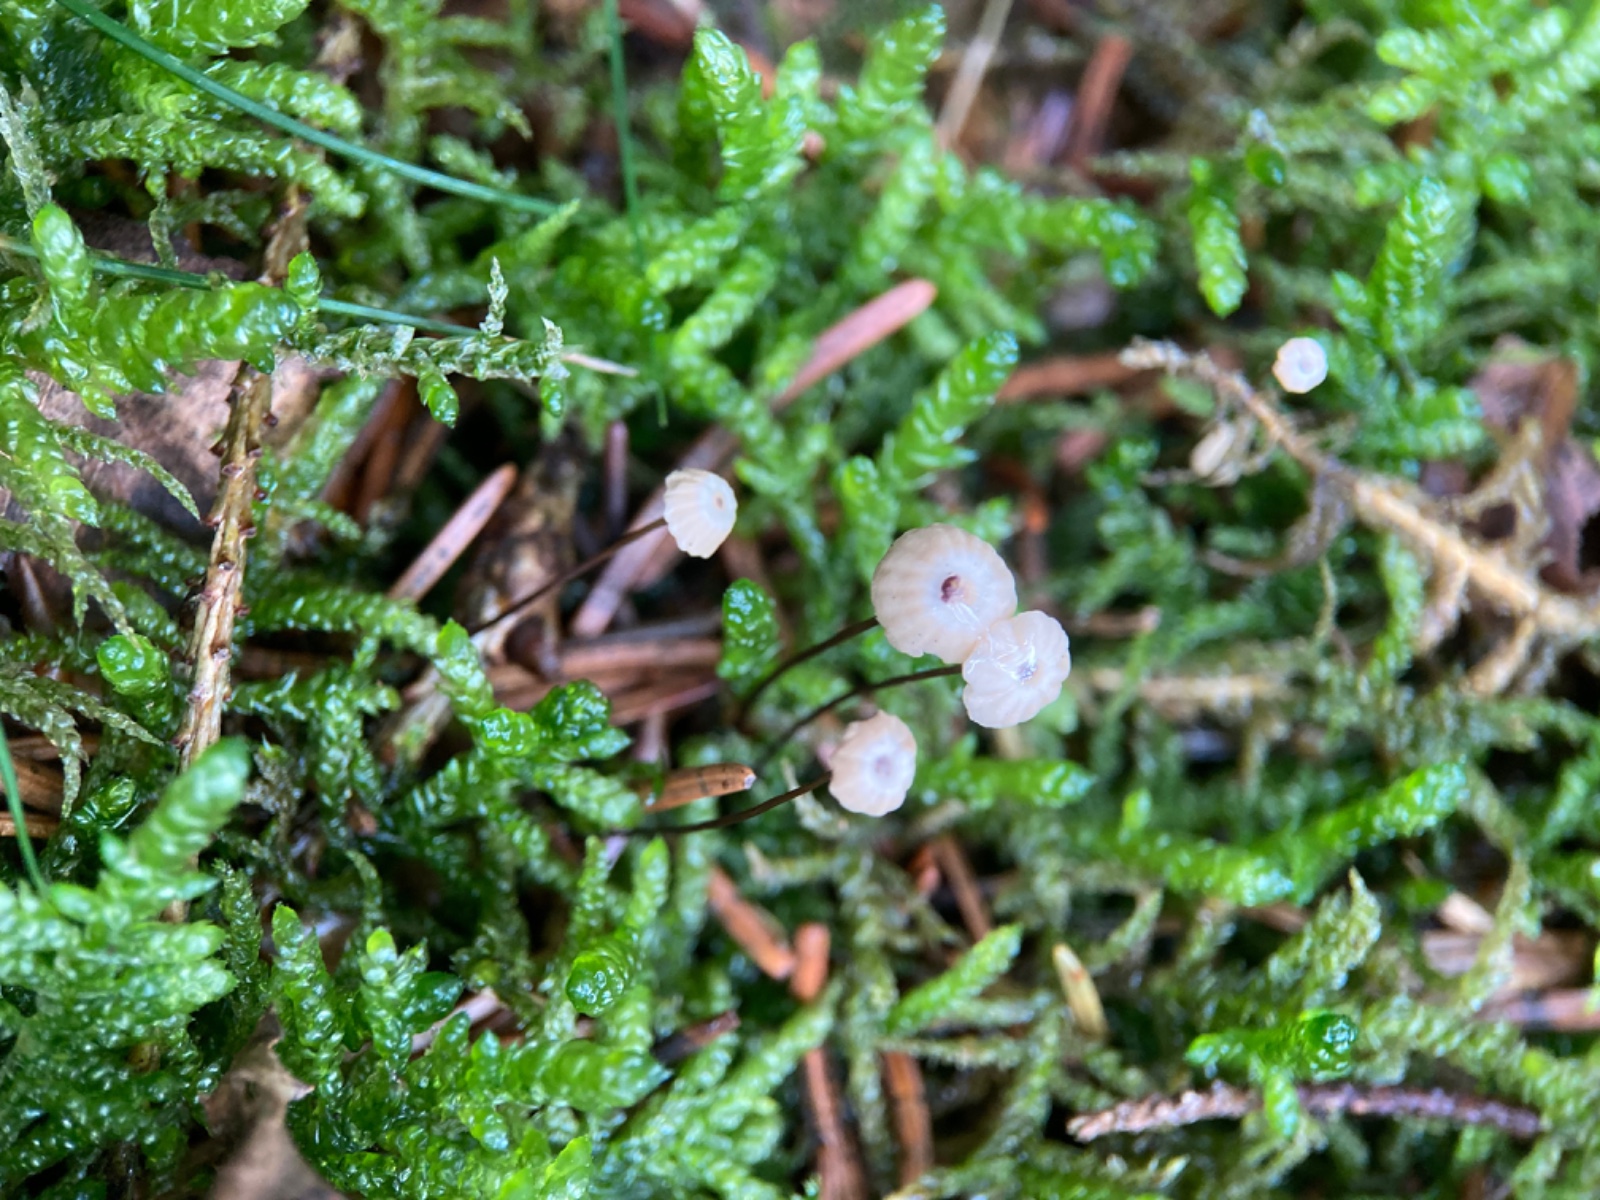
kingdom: Fungi
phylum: Basidiomycota
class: Agaricomycetes
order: Agaricales
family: Marasmiaceae
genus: Marasmius
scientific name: Marasmius wettsteinii
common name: Wettsteins bruskhat
